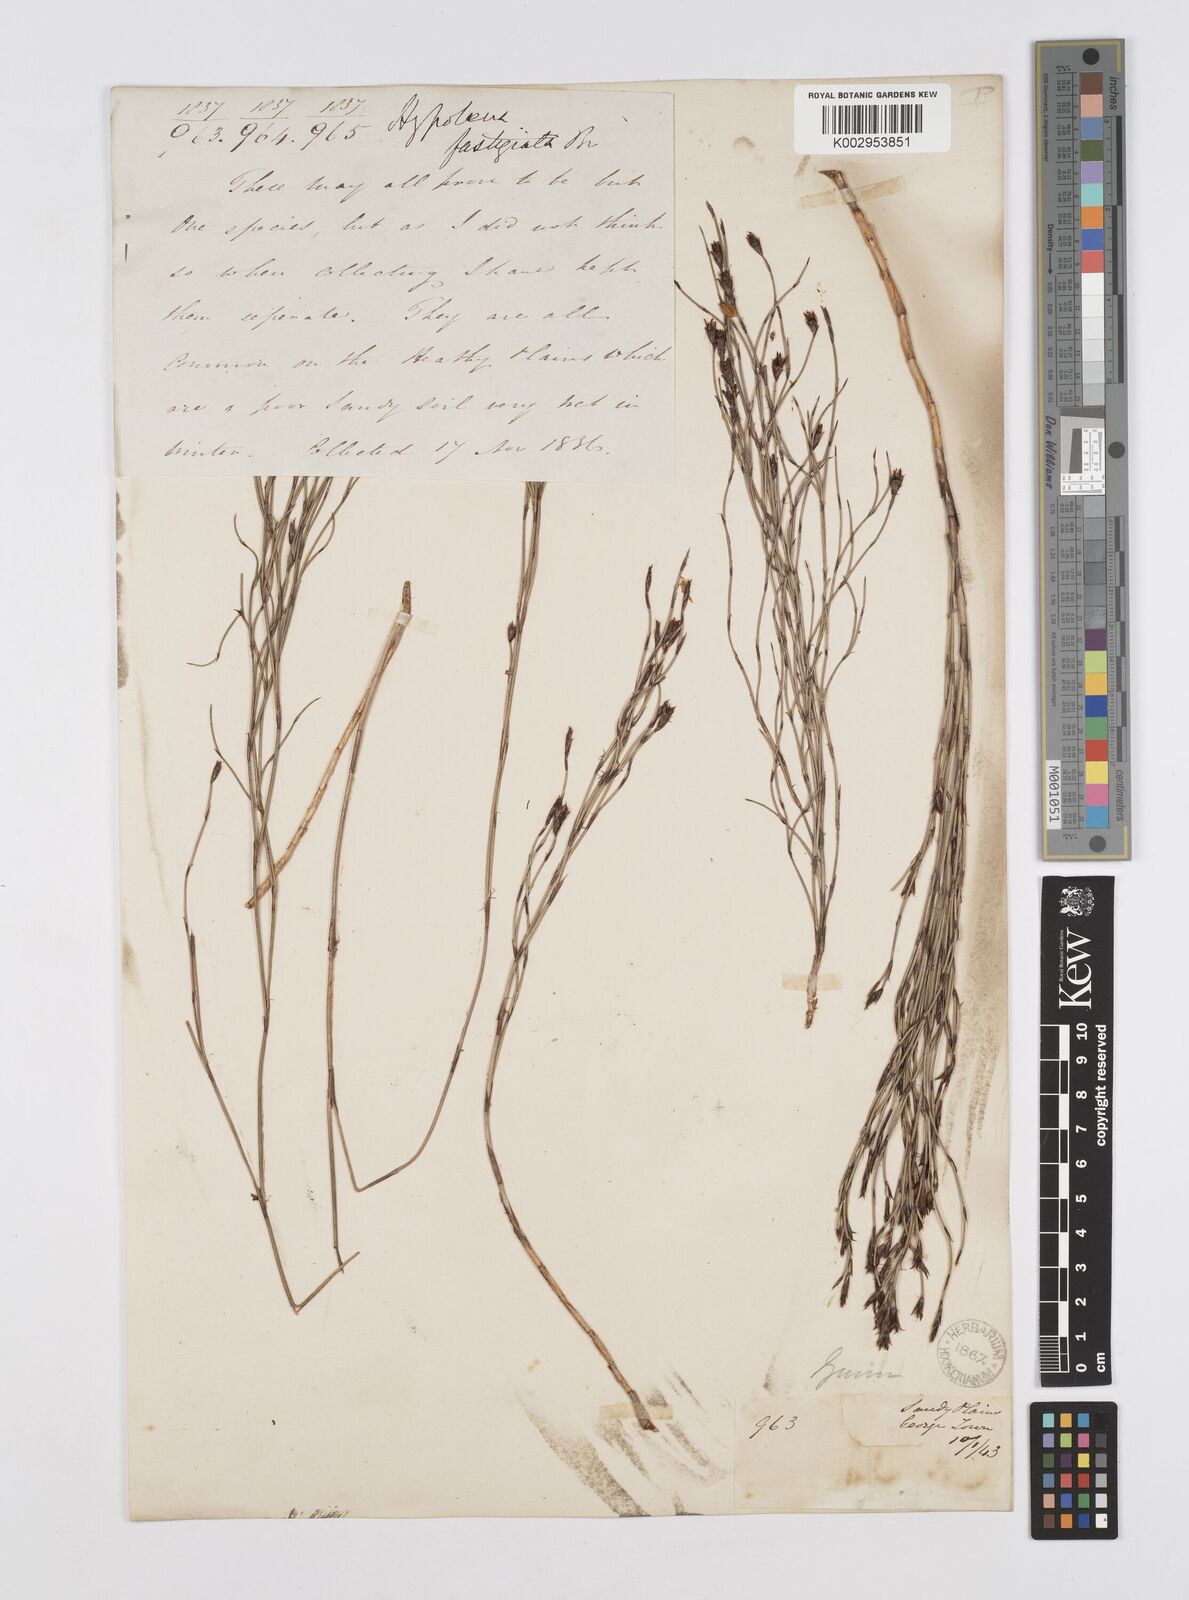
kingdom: Plantae
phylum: Tracheophyta
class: Liliopsida
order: Poales
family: Restionaceae
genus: Hypolaena
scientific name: Hypolaena fastigiata
